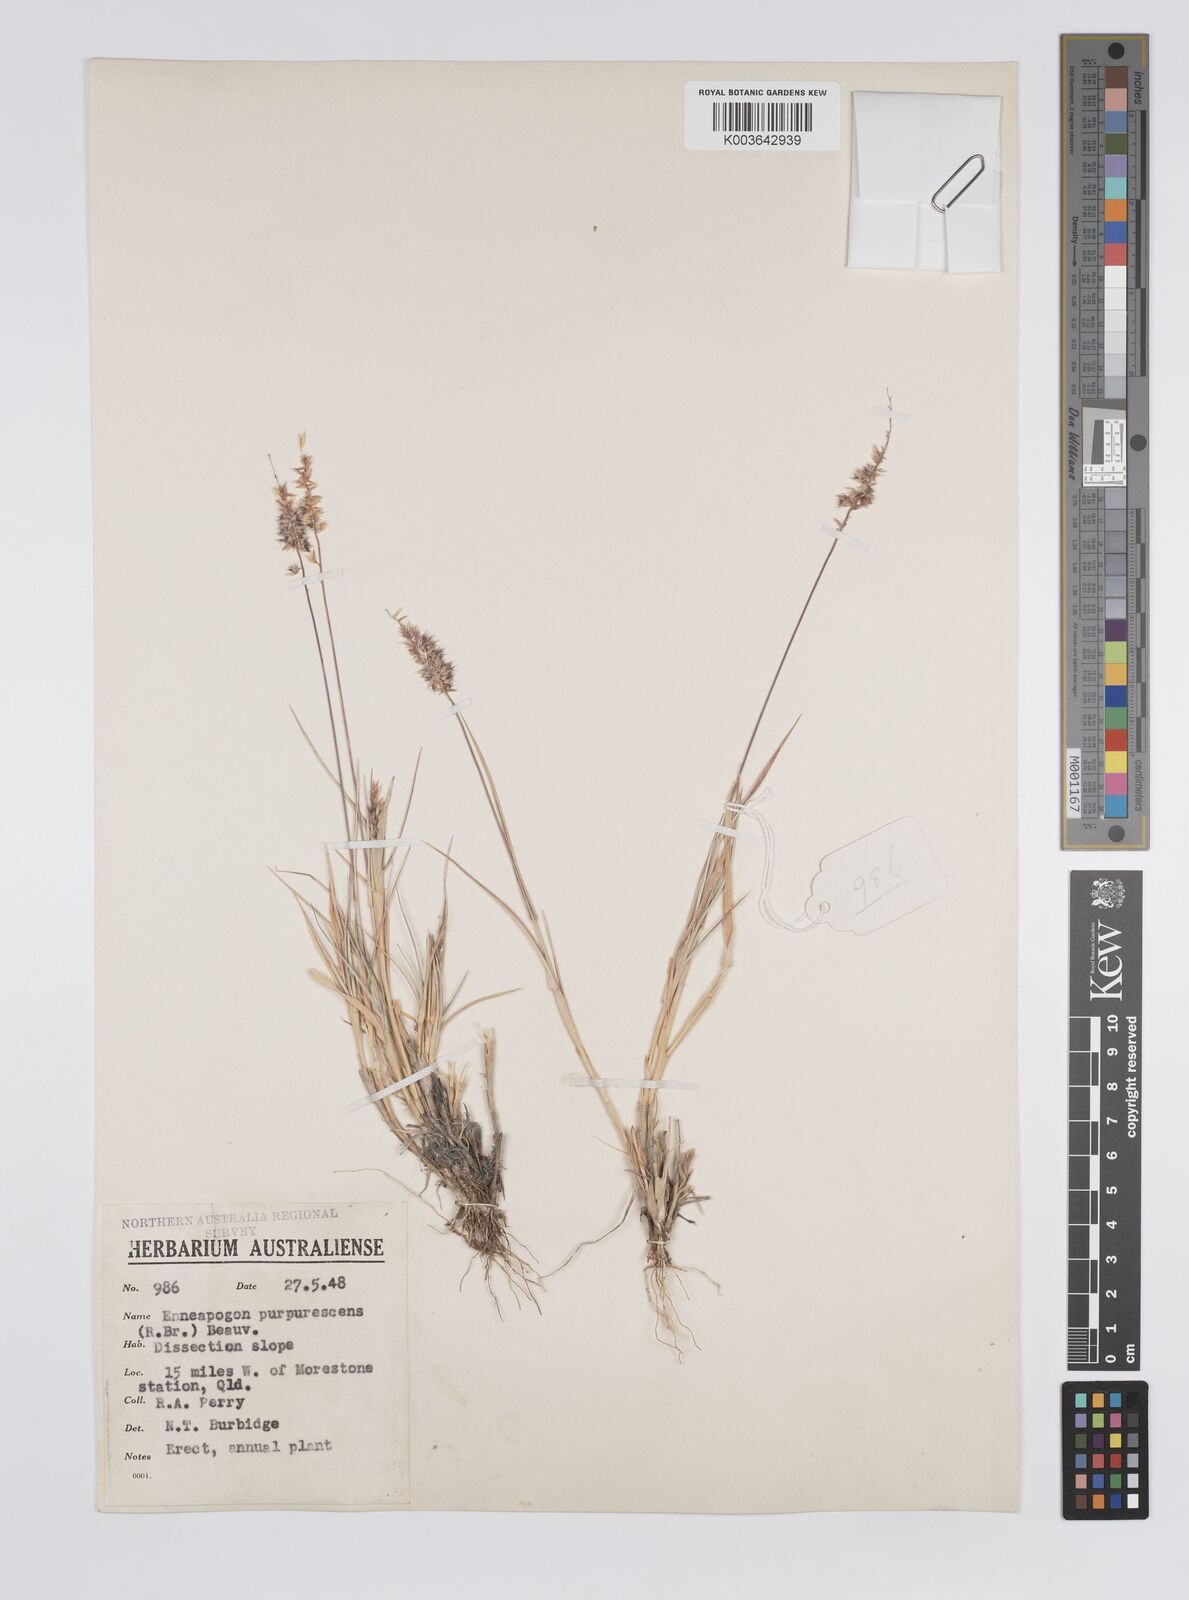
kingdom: Plantae
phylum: Tracheophyta
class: Liliopsida
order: Poales
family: Poaceae
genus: Enneapogon
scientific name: Enneapogon eremophilus
